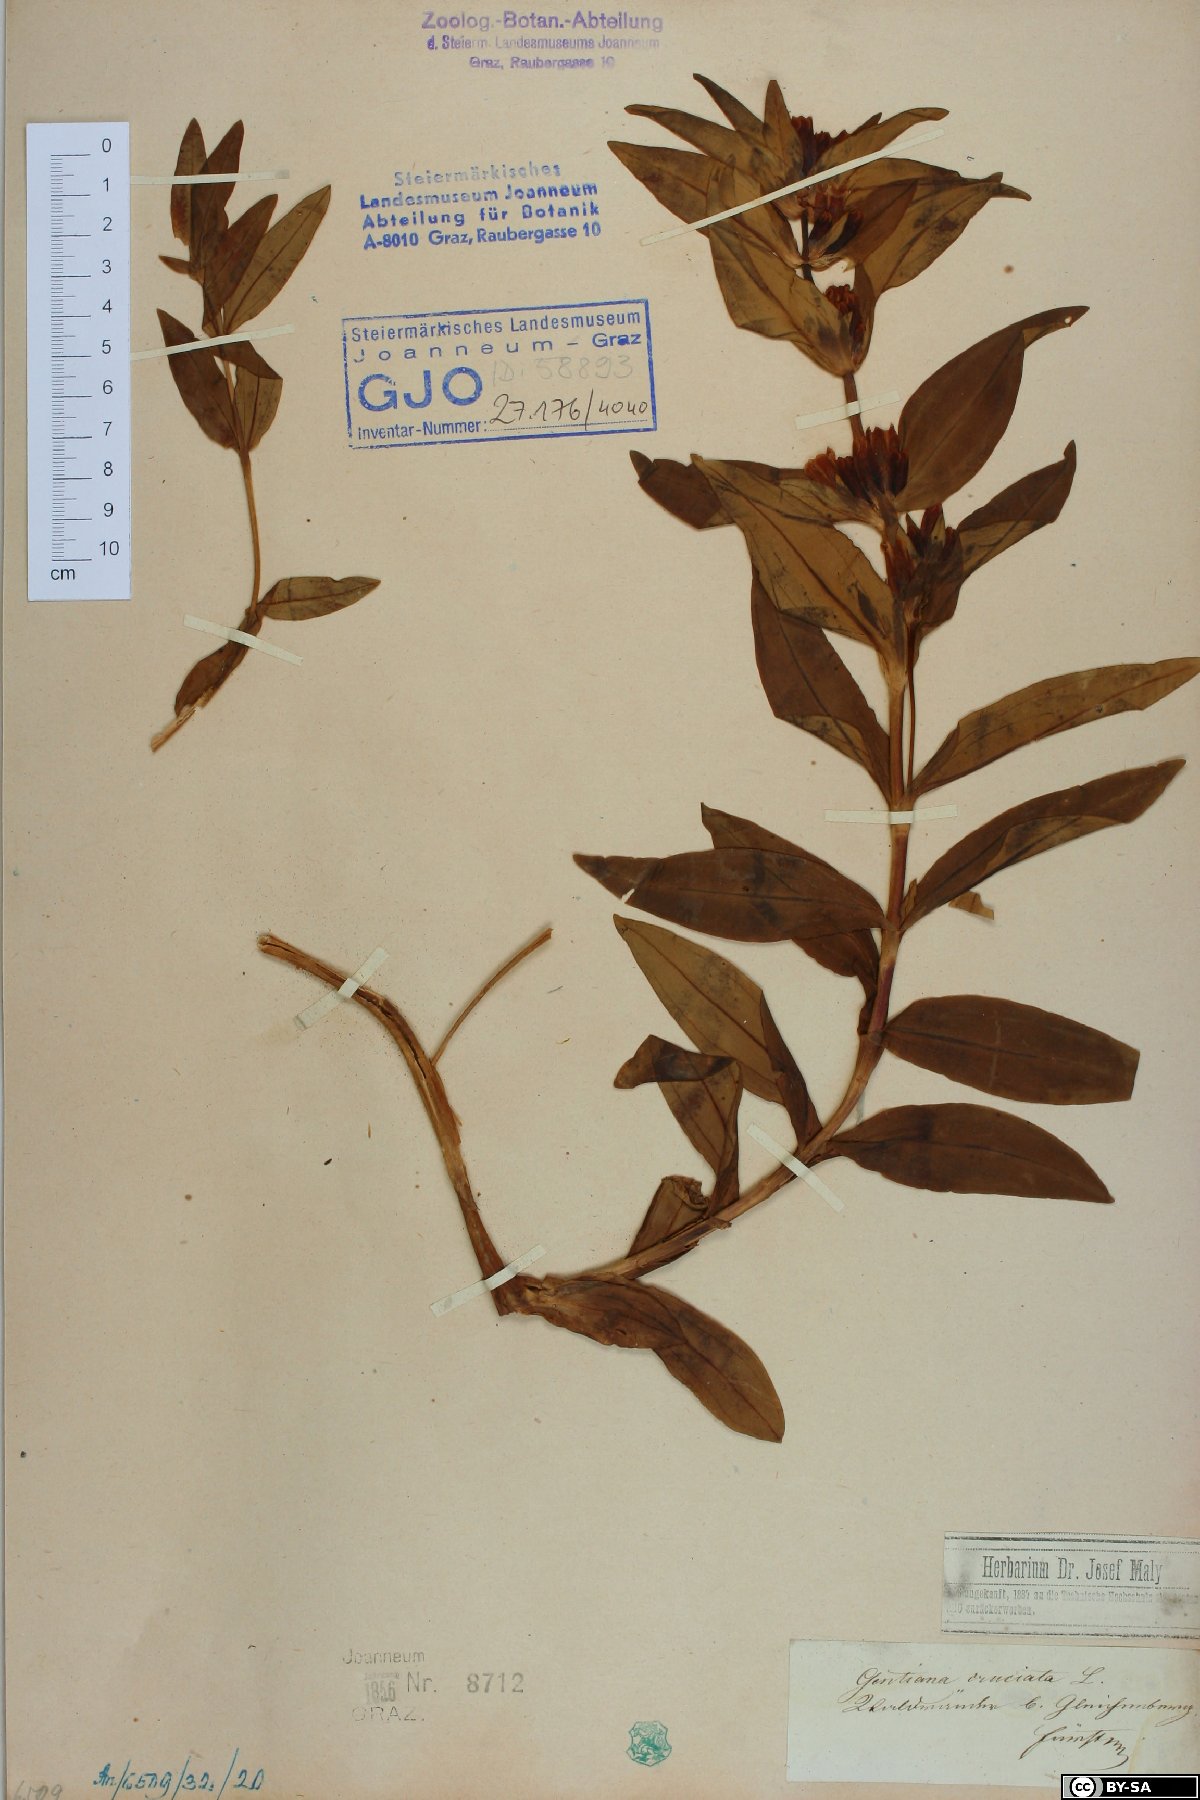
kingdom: Plantae
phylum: Tracheophyta
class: Magnoliopsida
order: Gentianales
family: Gentianaceae
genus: Gentiana
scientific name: Gentiana cruciata
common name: Cross gentian
